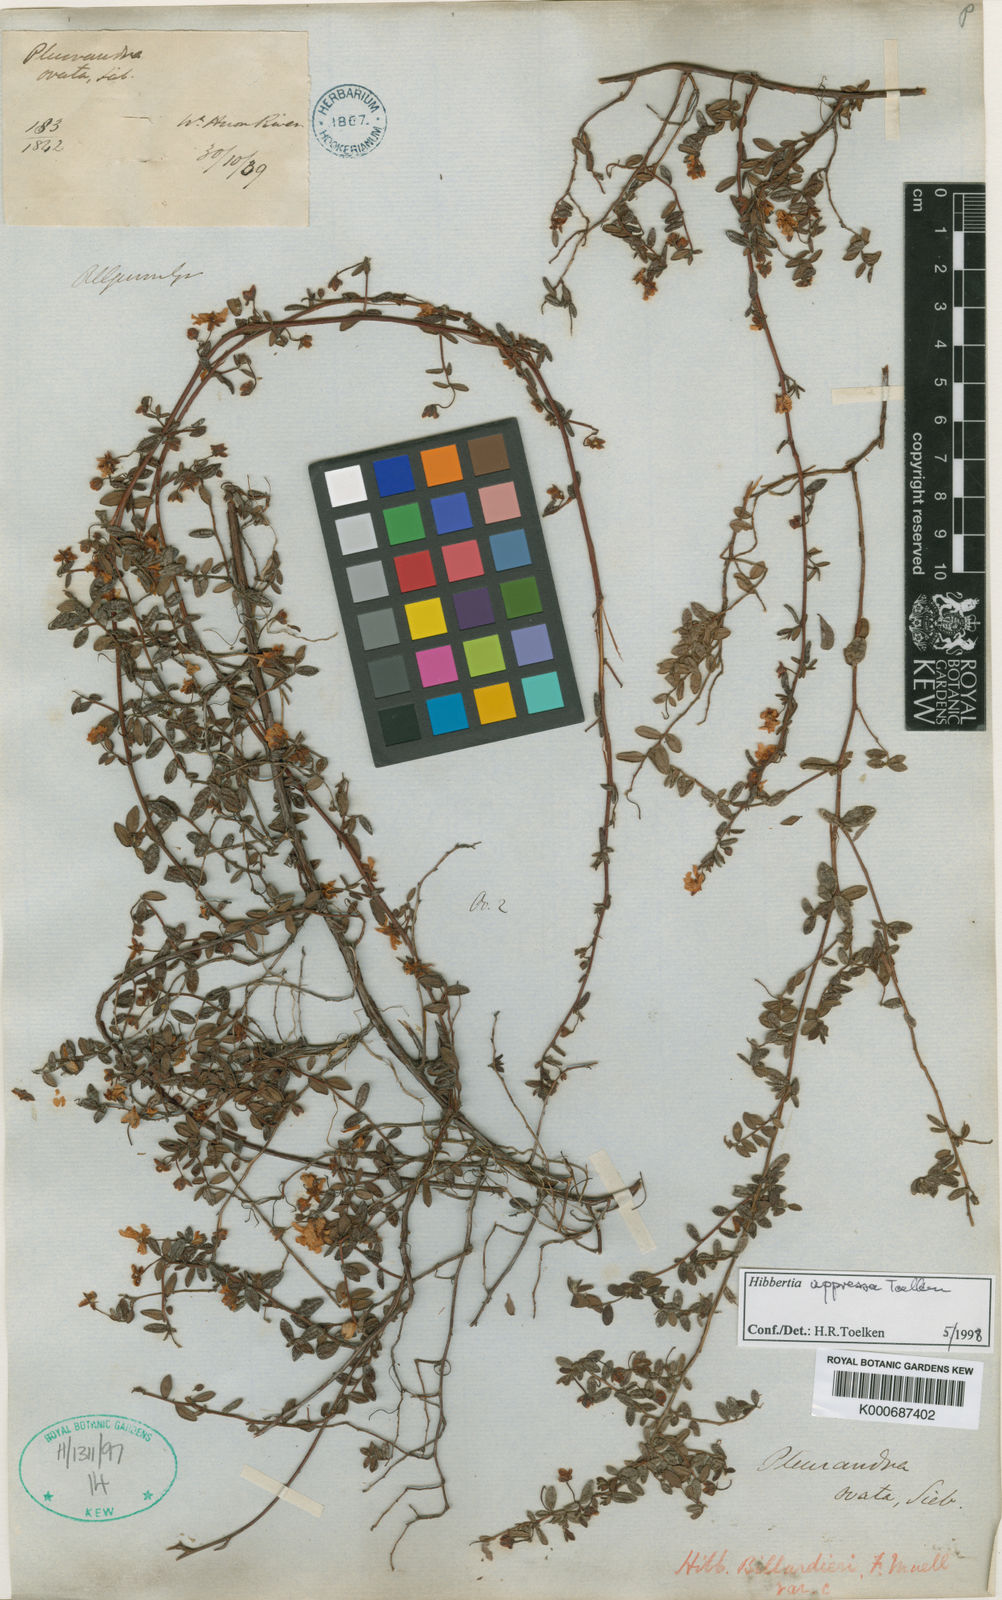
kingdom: Plantae
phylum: Tracheophyta
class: Magnoliopsida
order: Dilleniales
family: Dilleniaceae
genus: Hibbertia
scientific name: Hibbertia aspera
